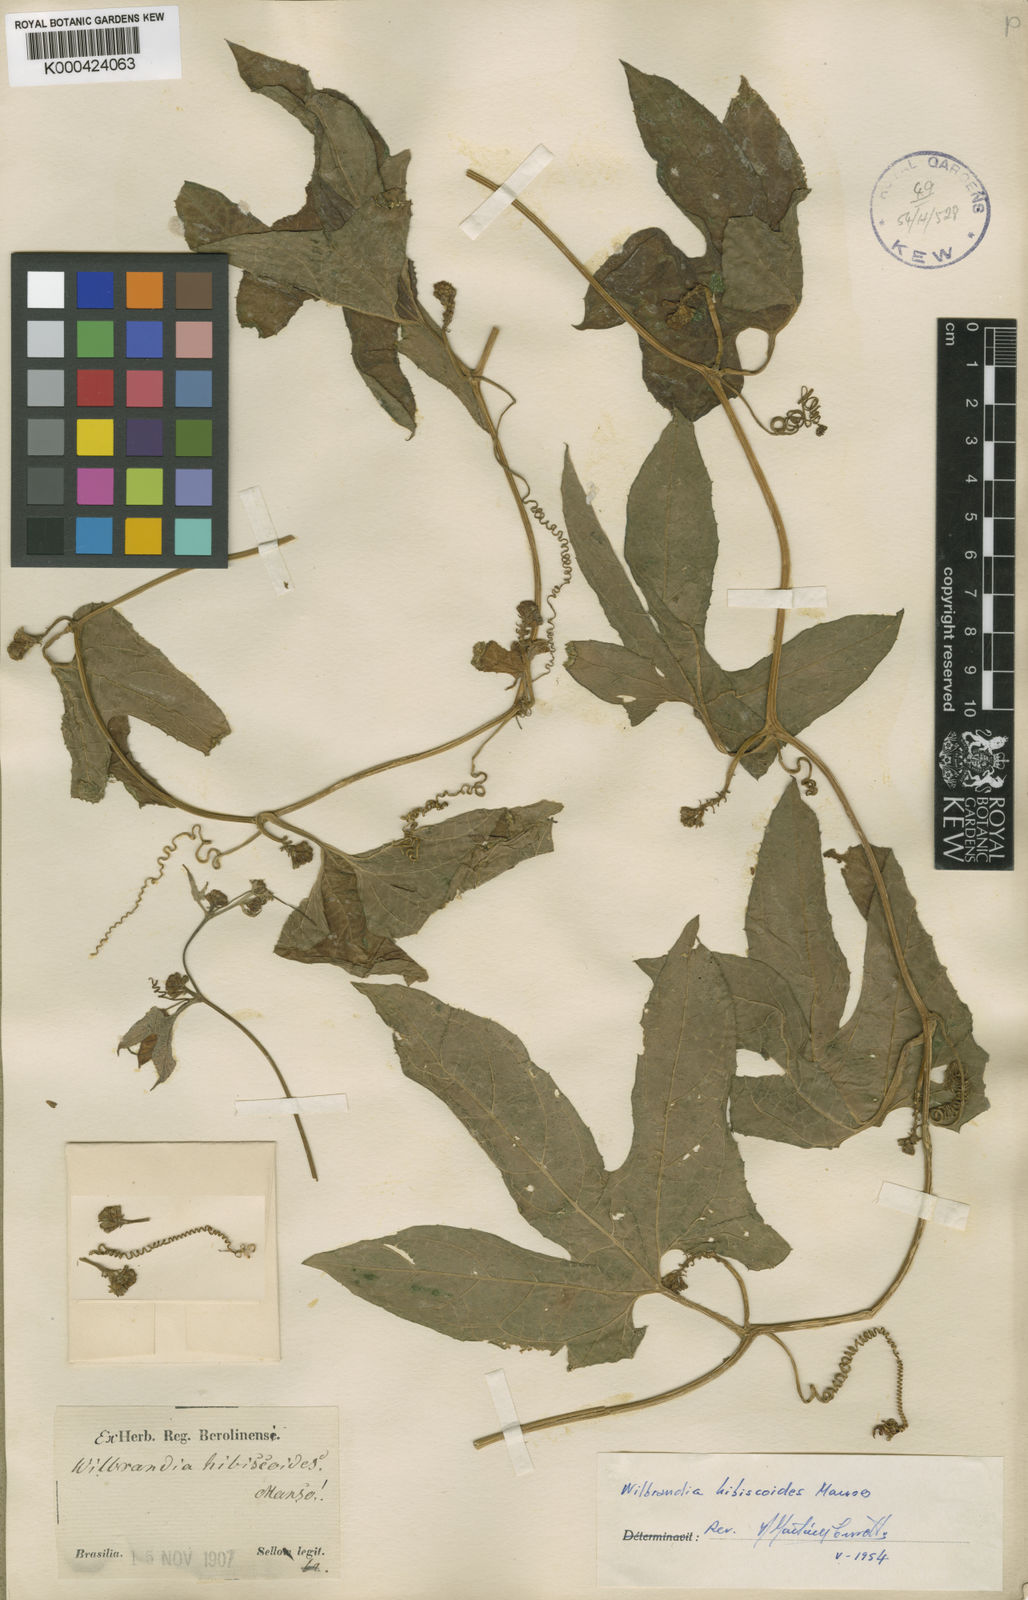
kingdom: Plantae
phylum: Tracheophyta
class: Magnoliopsida
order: Cucurbitales
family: Cucurbitaceae
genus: Wilbrandia
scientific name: Wilbrandia hibiscoides
